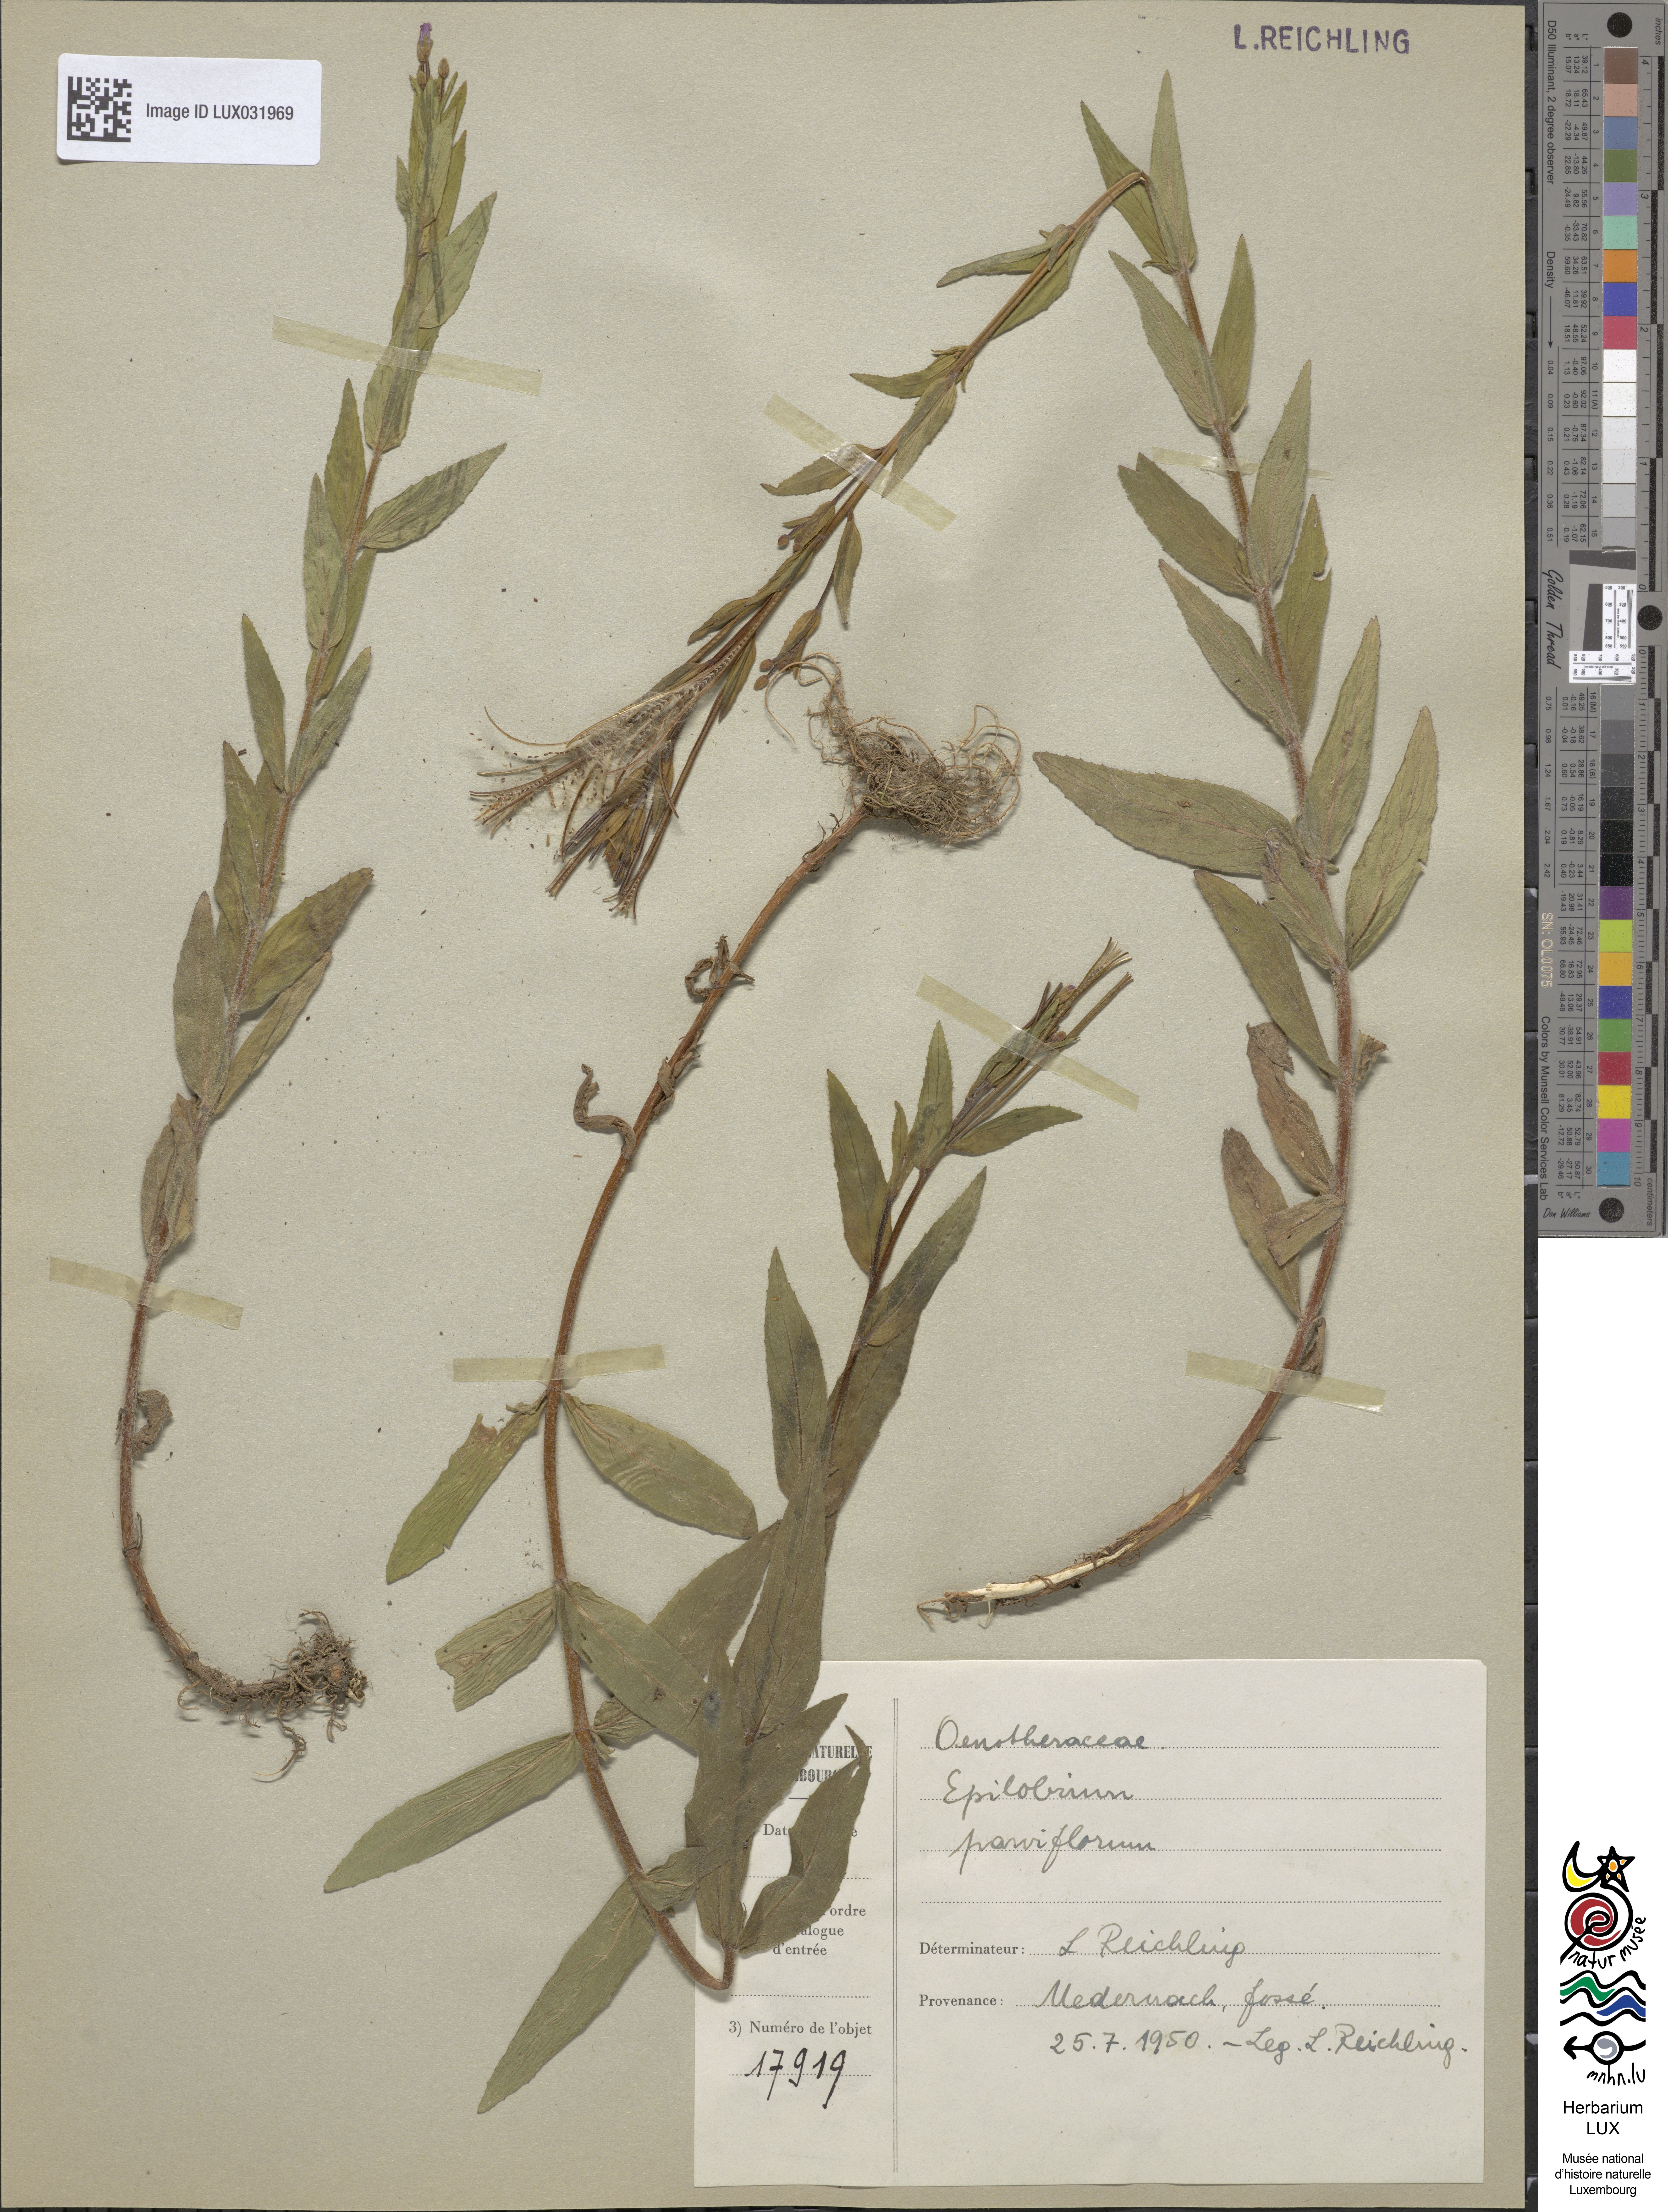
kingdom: Plantae
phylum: Tracheophyta
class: Magnoliopsida
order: Myrtales
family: Onagraceae
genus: Epilobium
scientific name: Epilobium parviflorum
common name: Hoary willowherb
